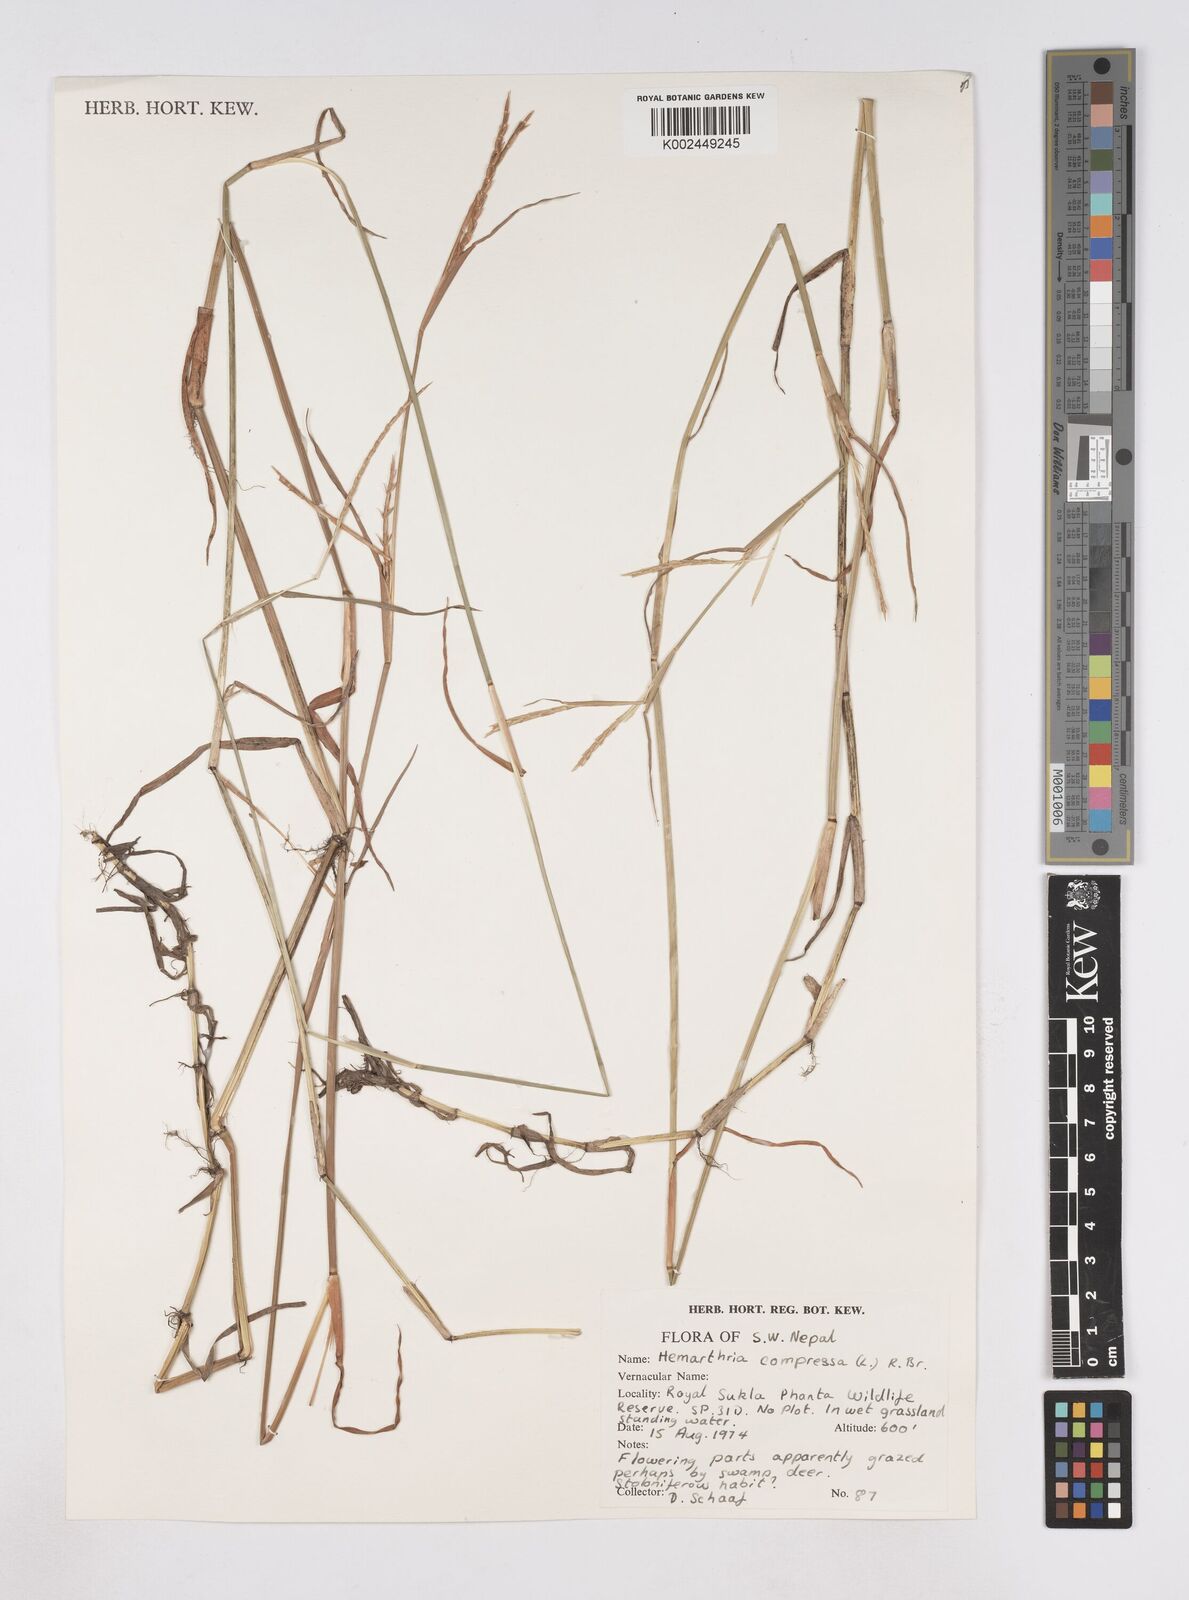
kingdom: Plantae
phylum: Tracheophyta
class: Liliopsida
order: Poales
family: Poaceae
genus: Hemarthria
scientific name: Hemarthria compressa
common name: Whip grass
